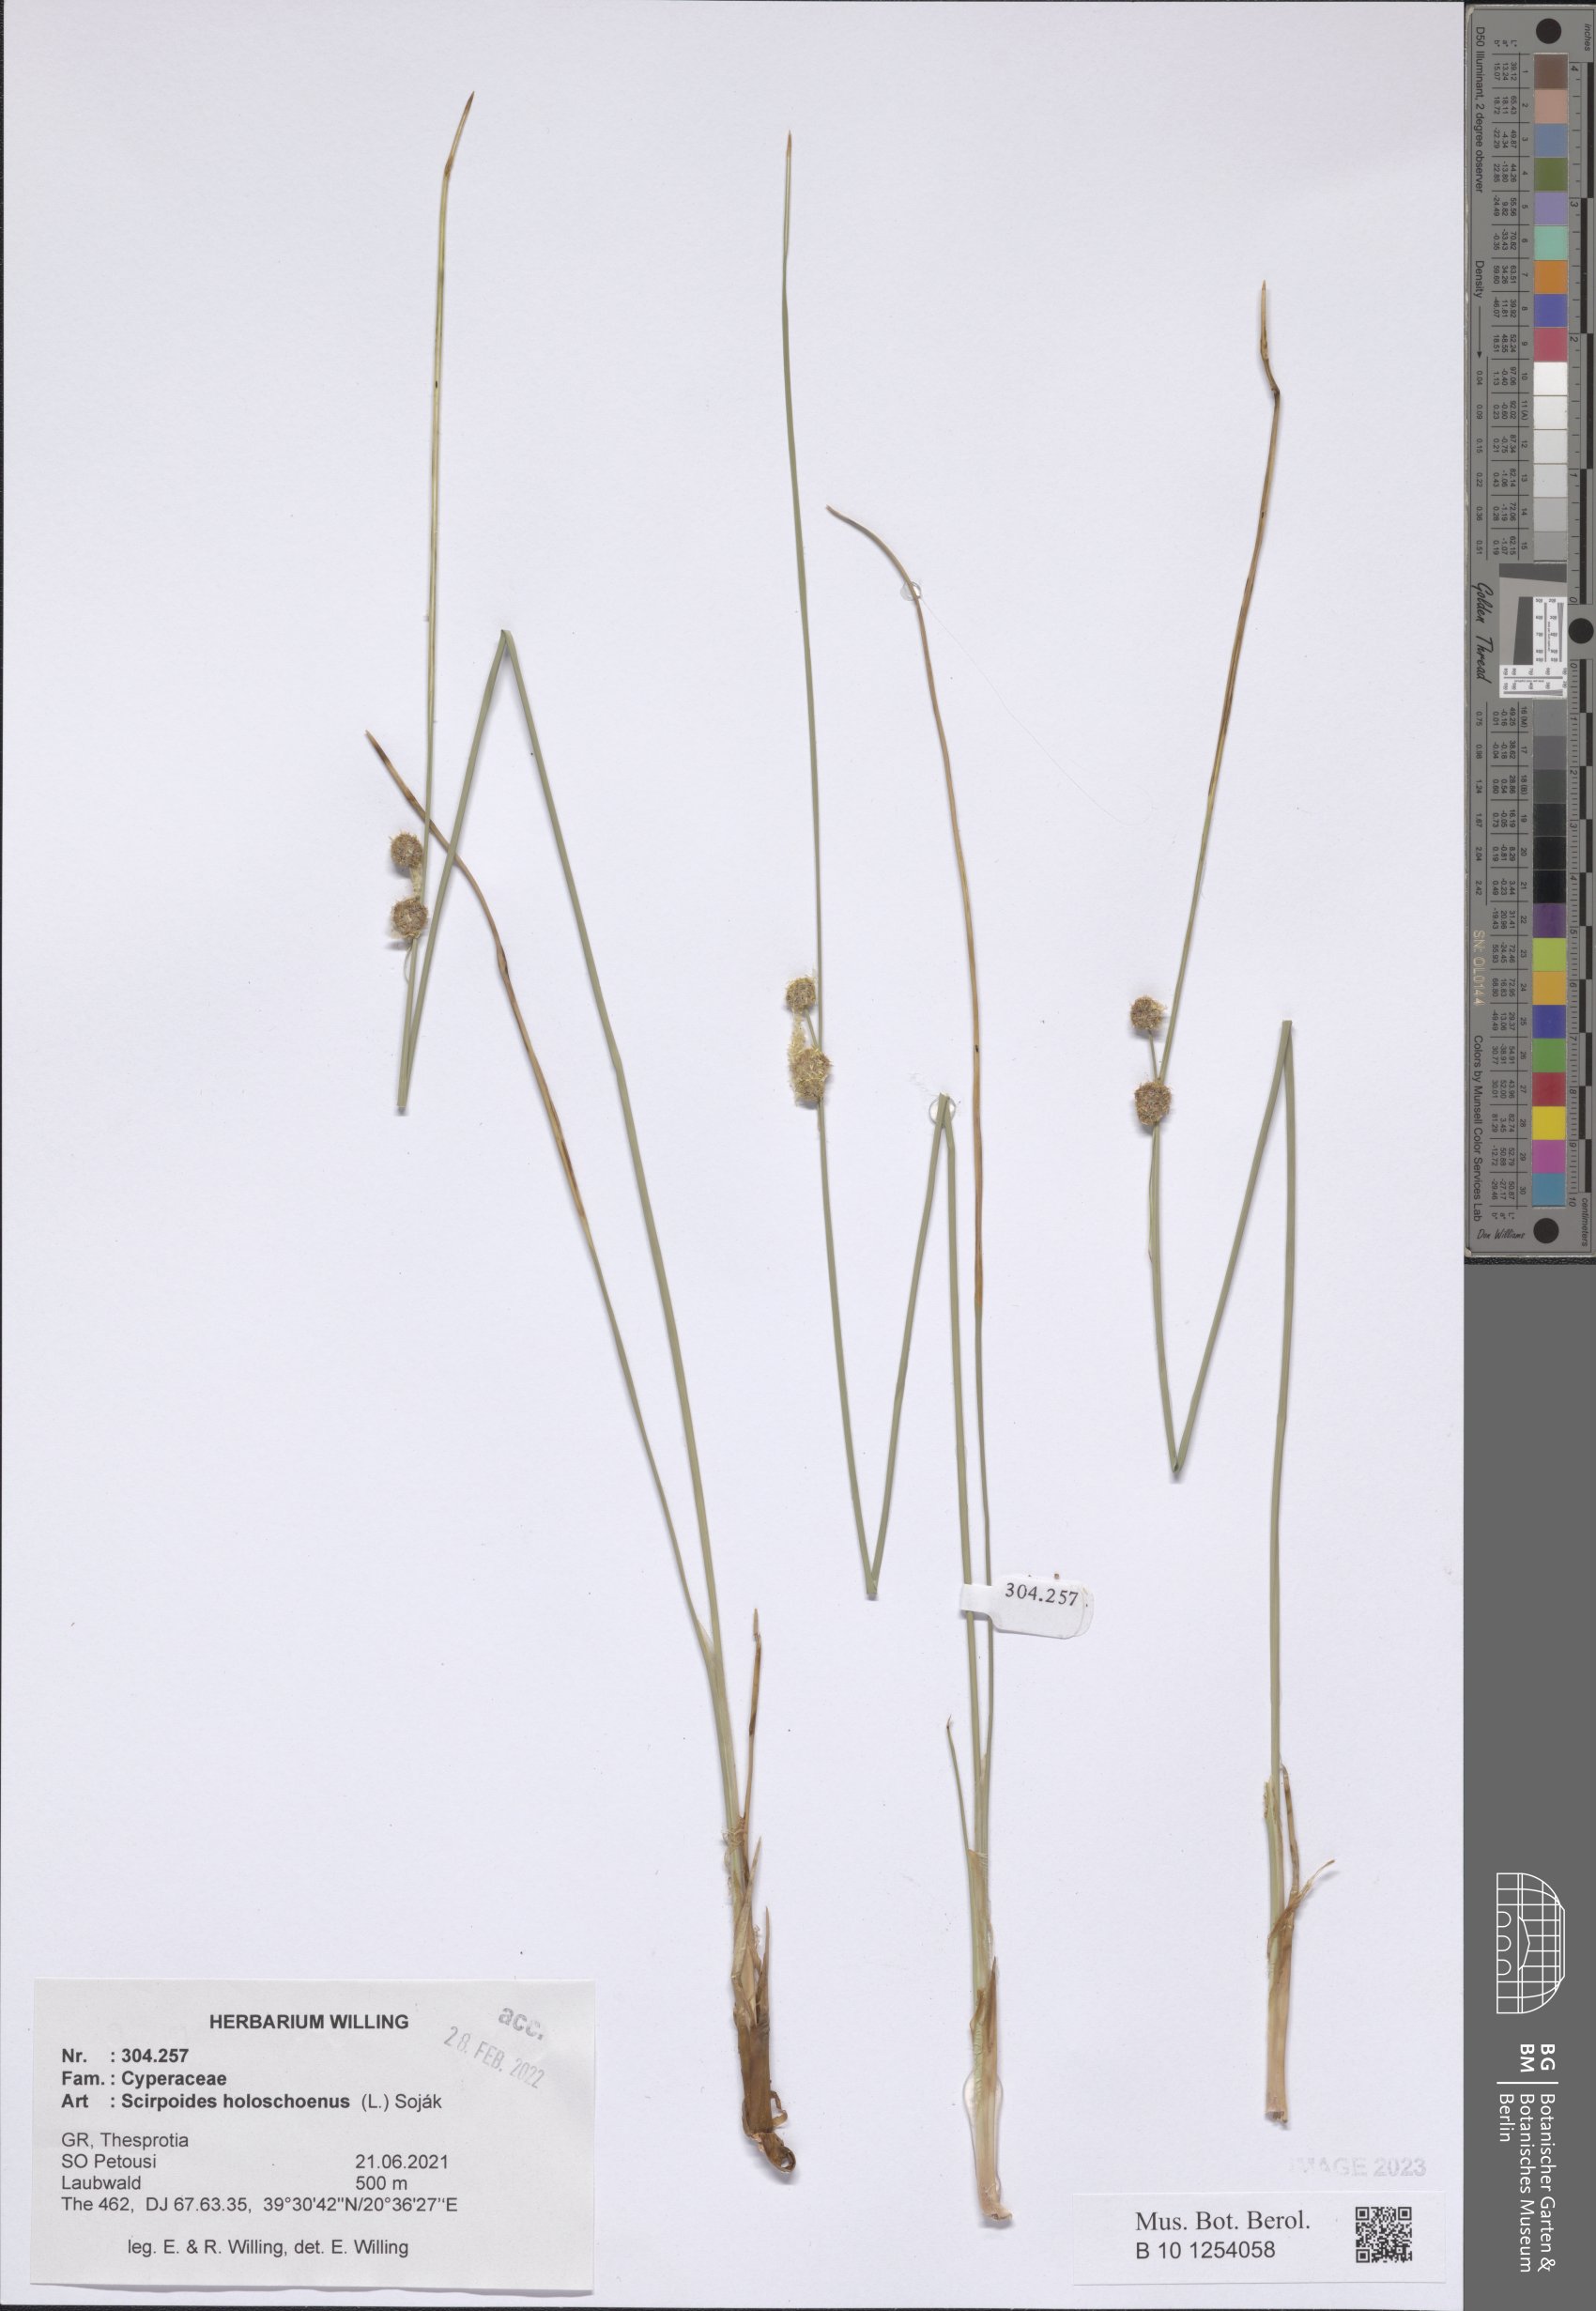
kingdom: Plantae
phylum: Tracheophyta
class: Liliopsida
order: Poales
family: Cyperaceae
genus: Scirpoides
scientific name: Scirpoides
